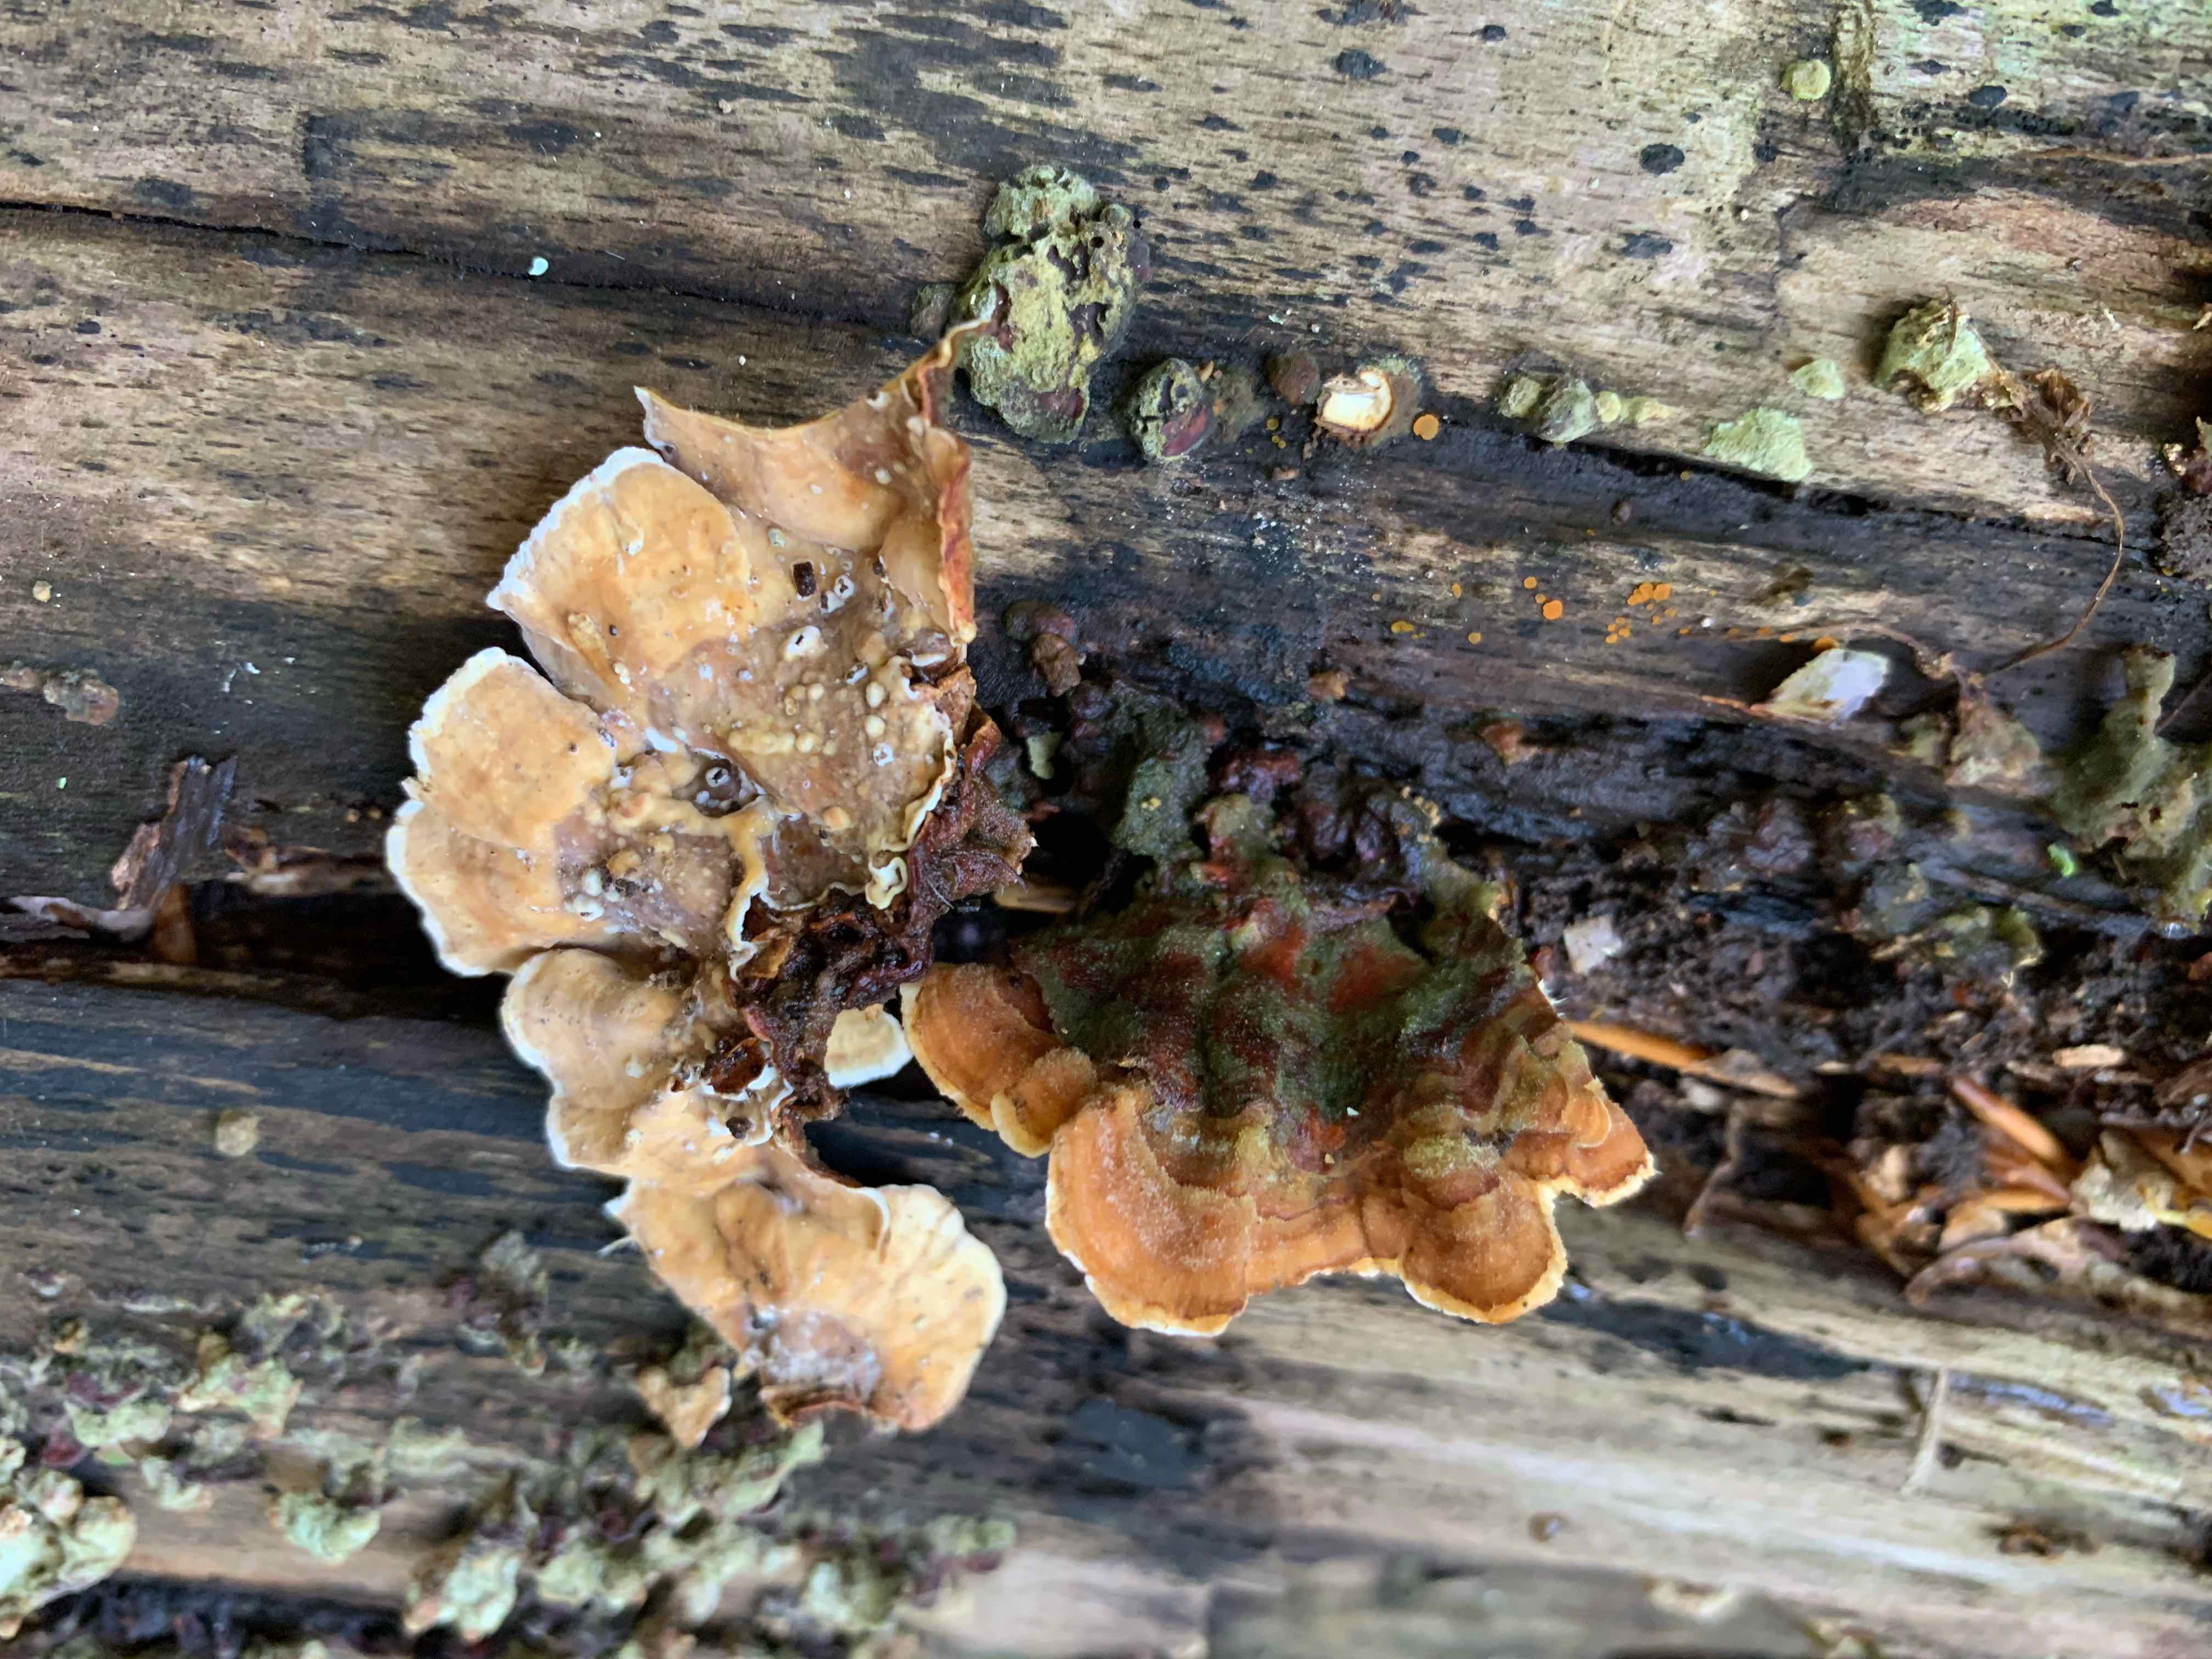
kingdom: Fungi
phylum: Basidiomycota
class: Agaricomycetes
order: Russulales
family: Stereaceae
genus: Stereum
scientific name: Stereum subtomentosum
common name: smuk lædersvamp
